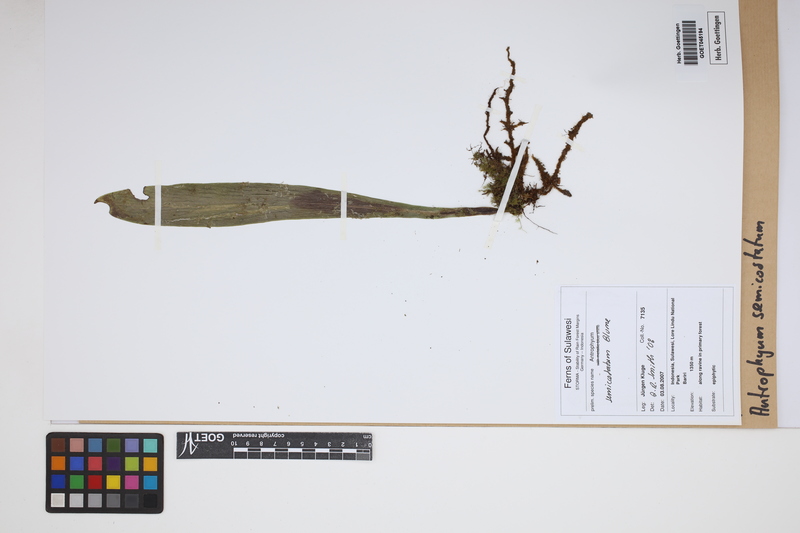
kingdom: Plantae
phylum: Tracheophyta
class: Polypodiopsida
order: Polypodiales
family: Pteridaceae
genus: Antrophyum
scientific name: Antrophyum semicostatum
